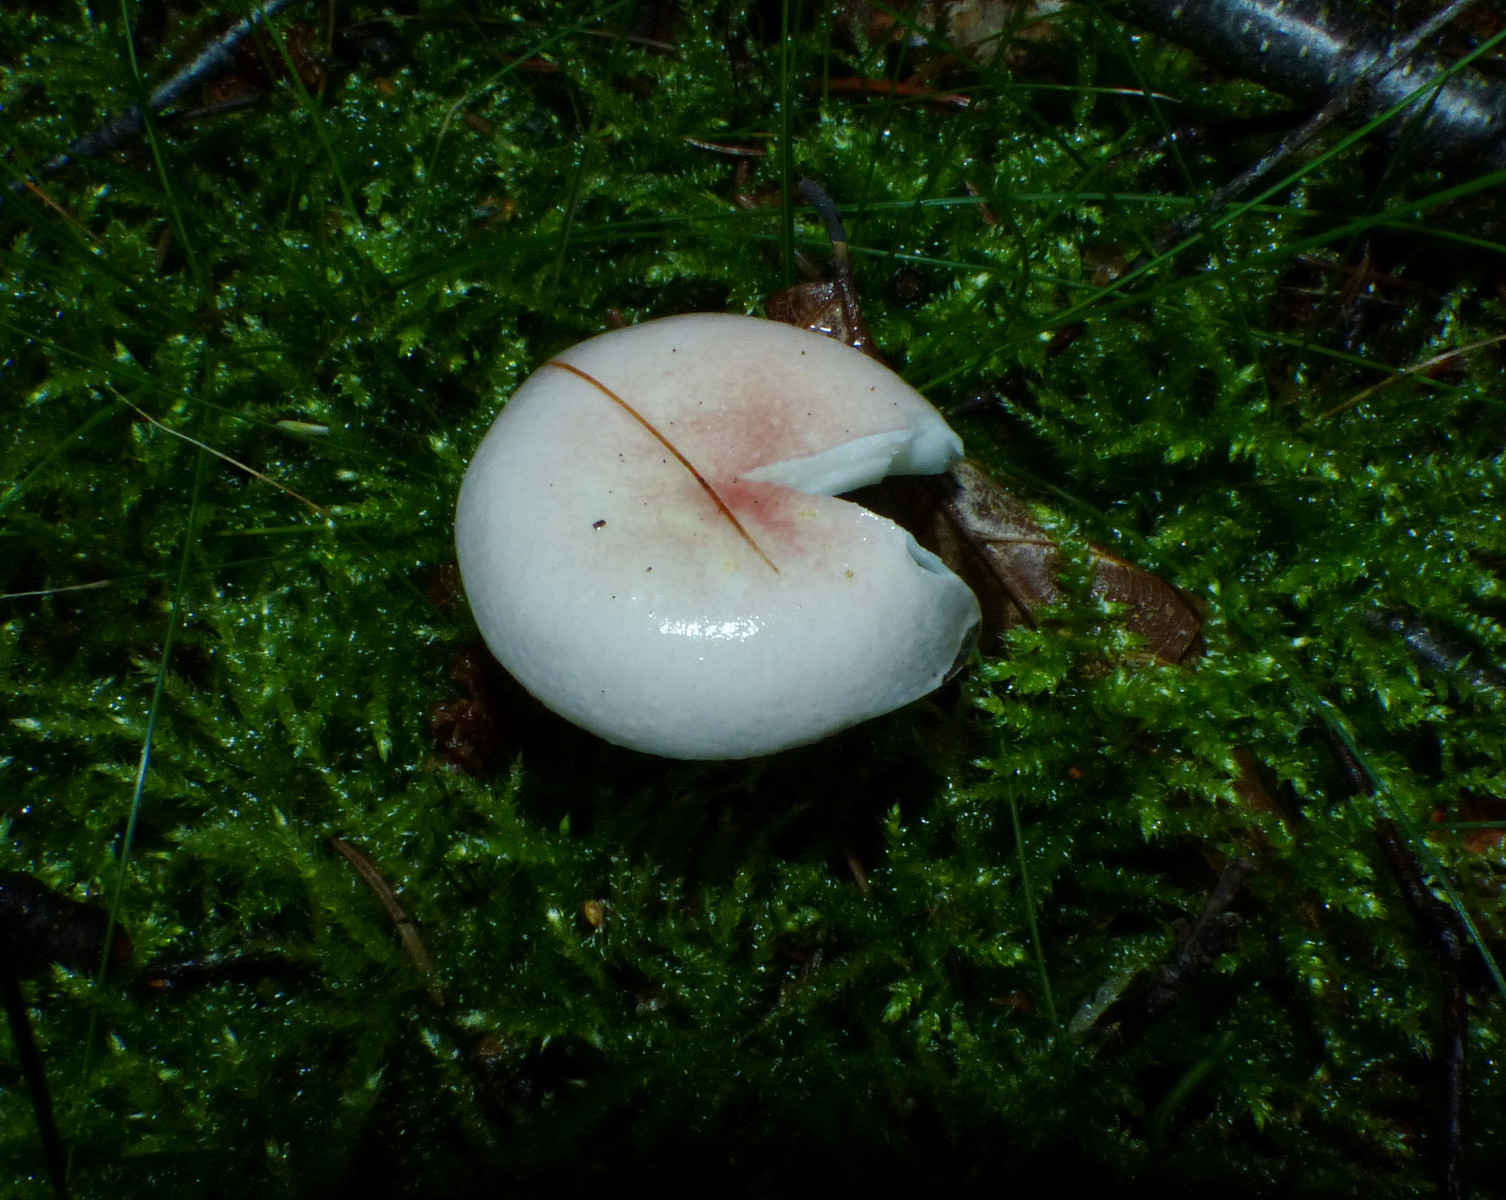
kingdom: Fungi
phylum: Basidiomycota
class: Agaricomycetes
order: Russulales
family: Russulaceae
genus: Russula
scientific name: Russula betularum
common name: bleg gift-skørhat
